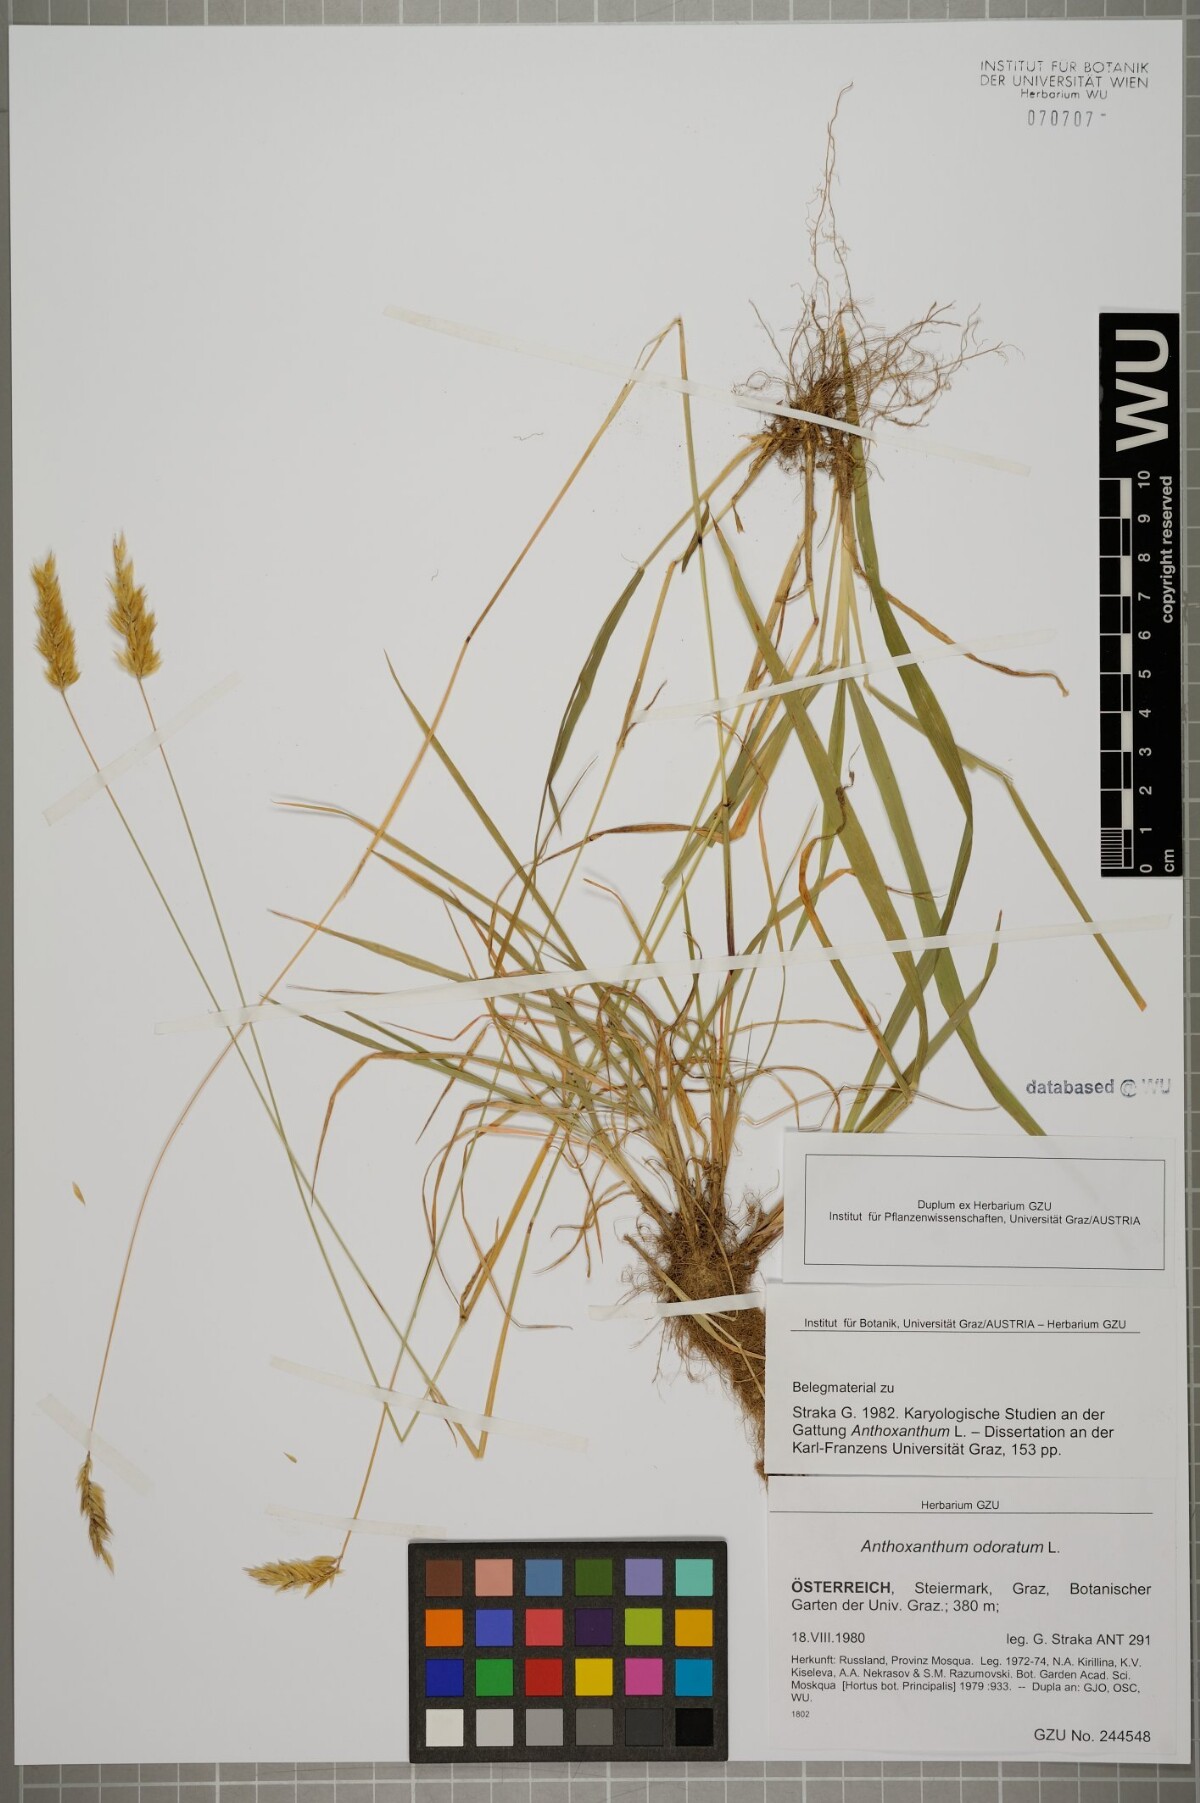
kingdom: Plantae
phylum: Tracheophyta
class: Liliopsida
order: Poales
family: Poaceae
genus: Anthoxanthum
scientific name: Anthoxanthum odoratum
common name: Sweet vernalgrass
